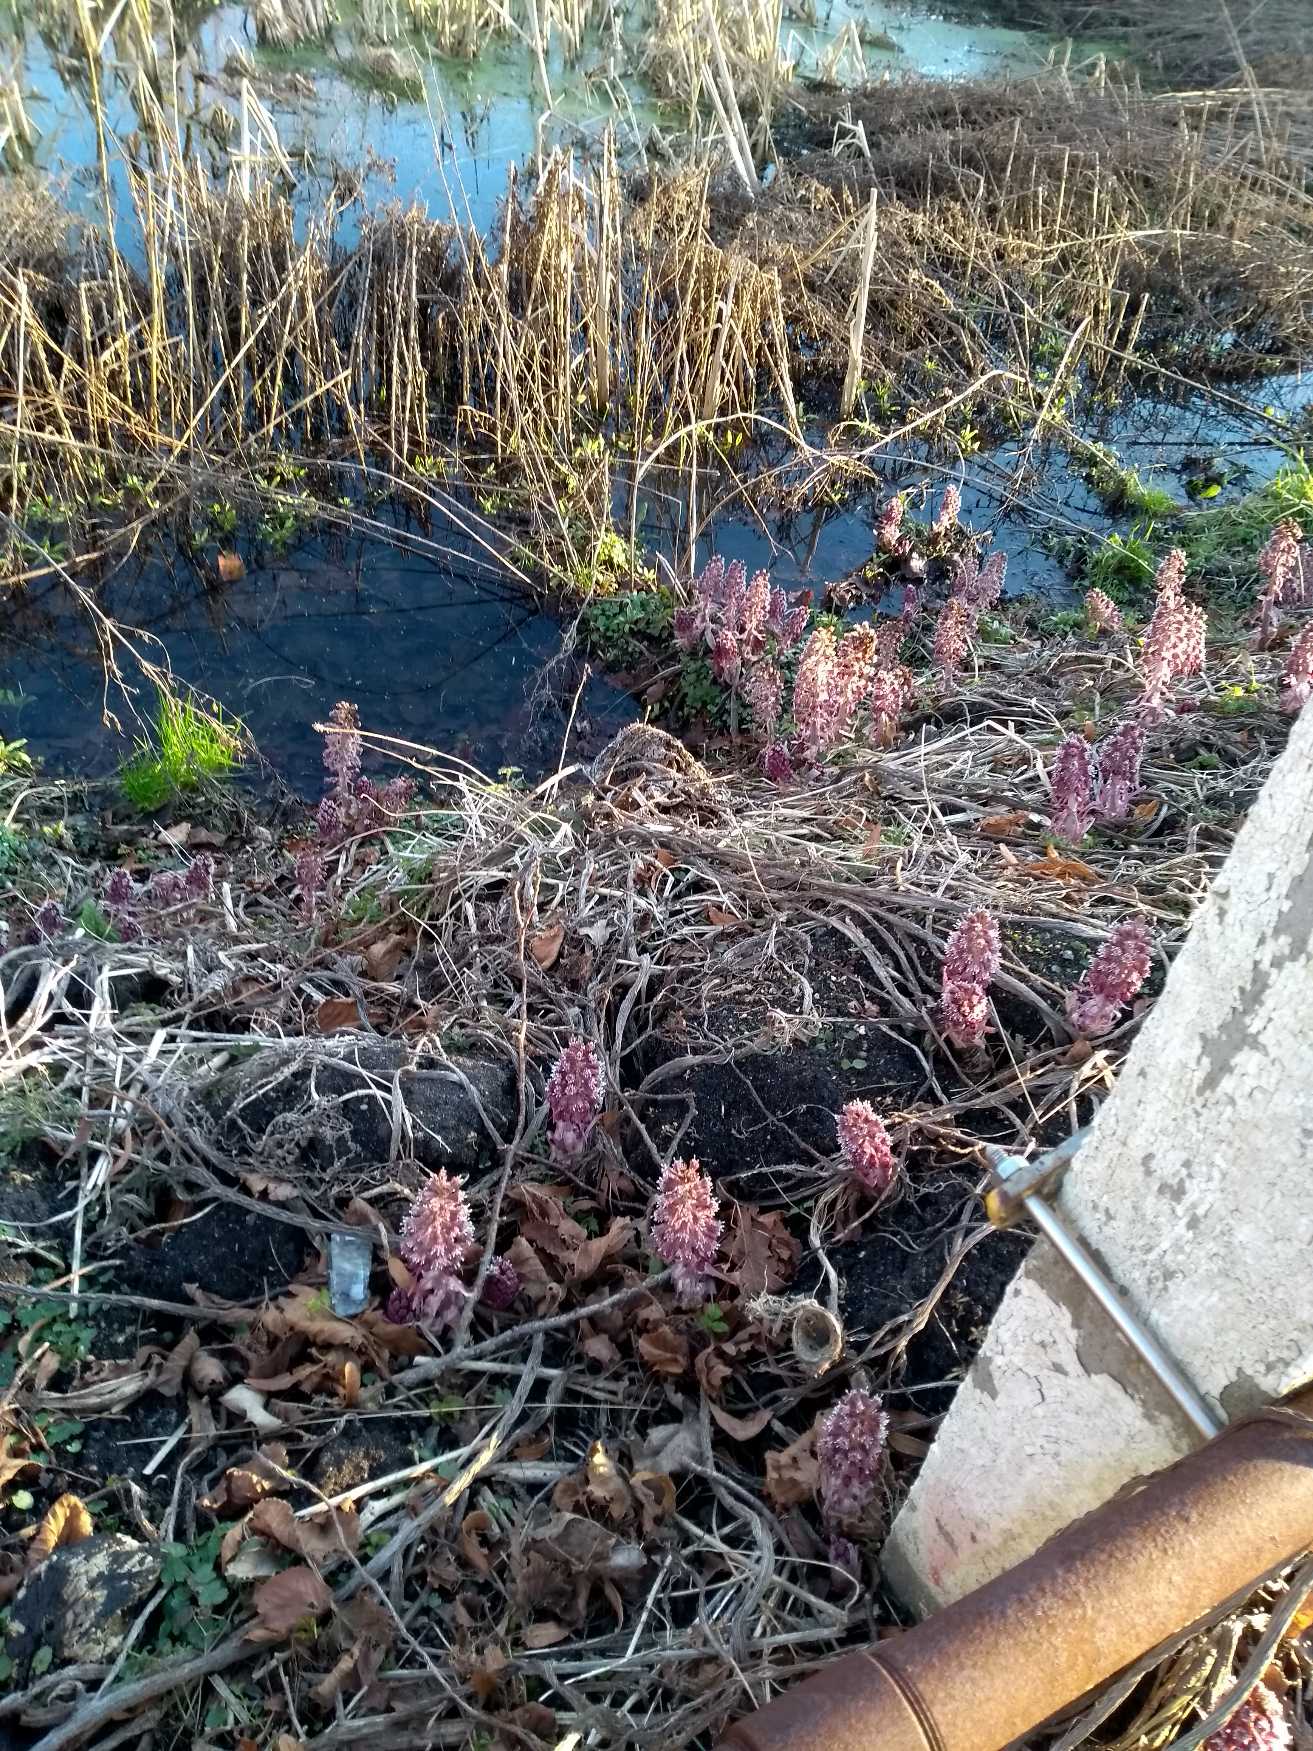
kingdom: Plantae
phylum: Tracheophyta
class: Magnoliopsida
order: Asterales
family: Asteraceae
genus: Petasites
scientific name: Petasites hybridus
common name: Rød hestehov
